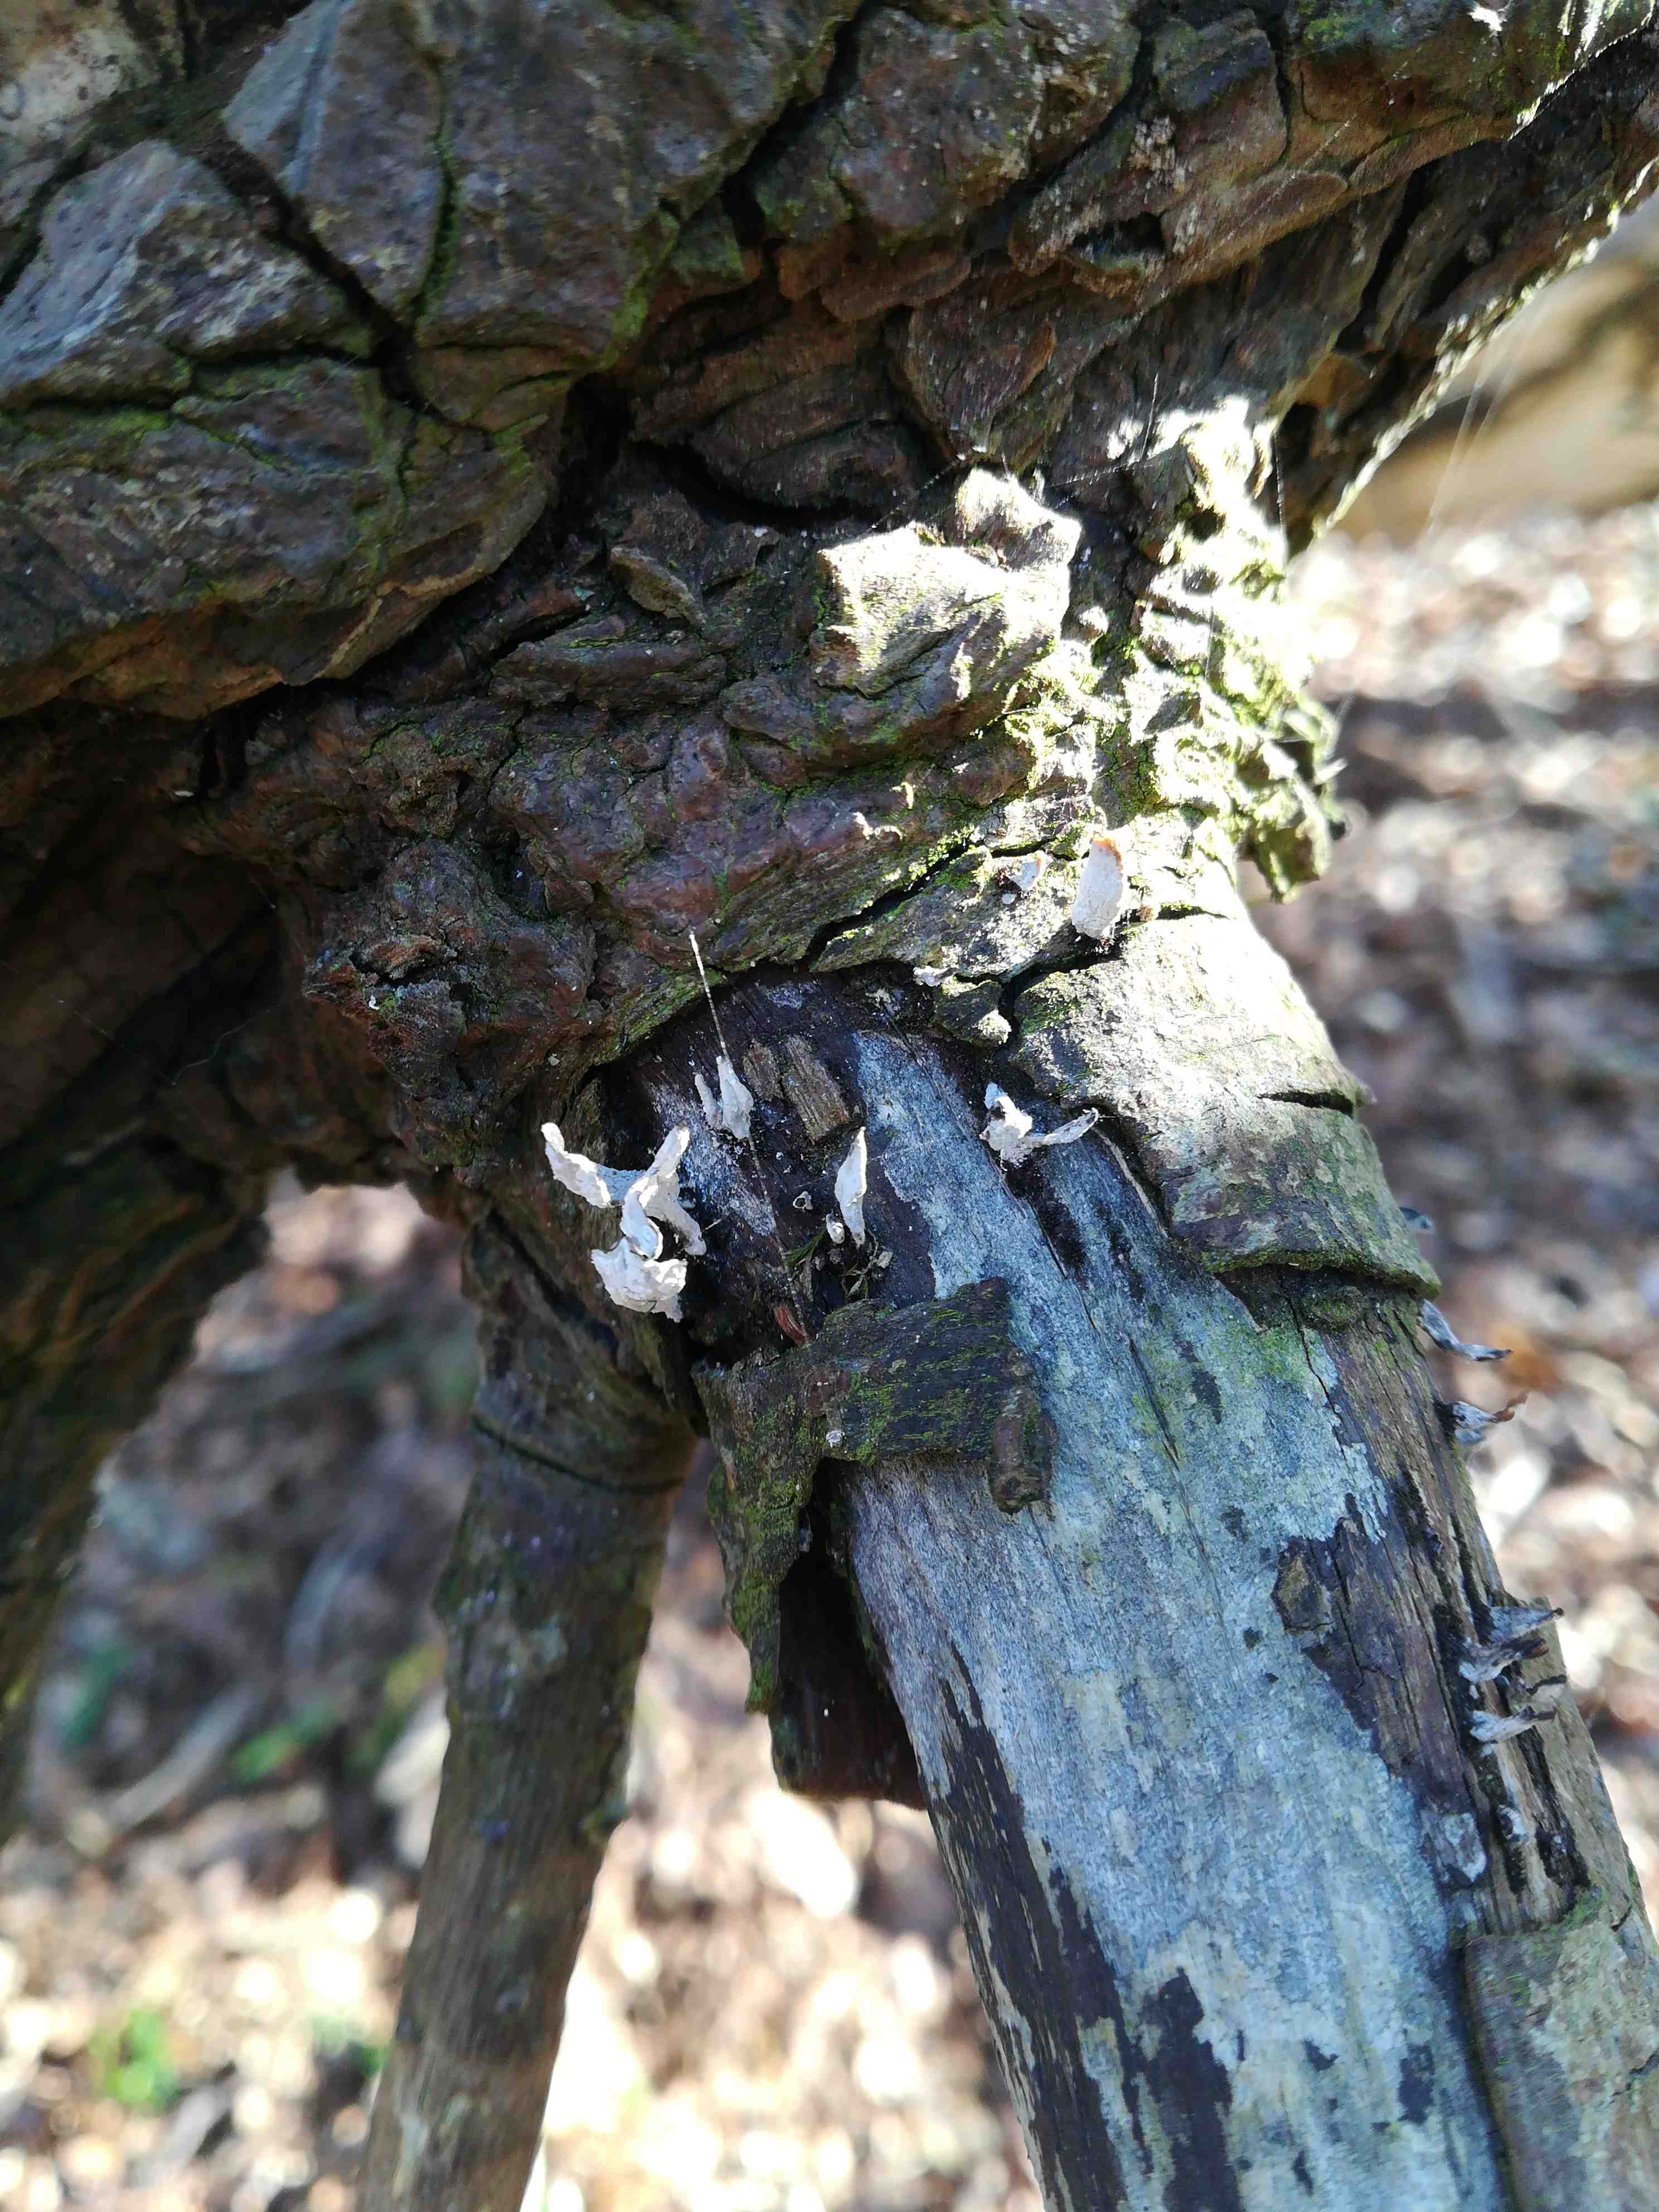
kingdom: Fungi
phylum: Ascomycota
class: Sordariomycetes
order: Xylariales
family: Xylariaceae
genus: Xylaria
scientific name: Xylaria hypoxylon
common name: grenet stødsvamp
